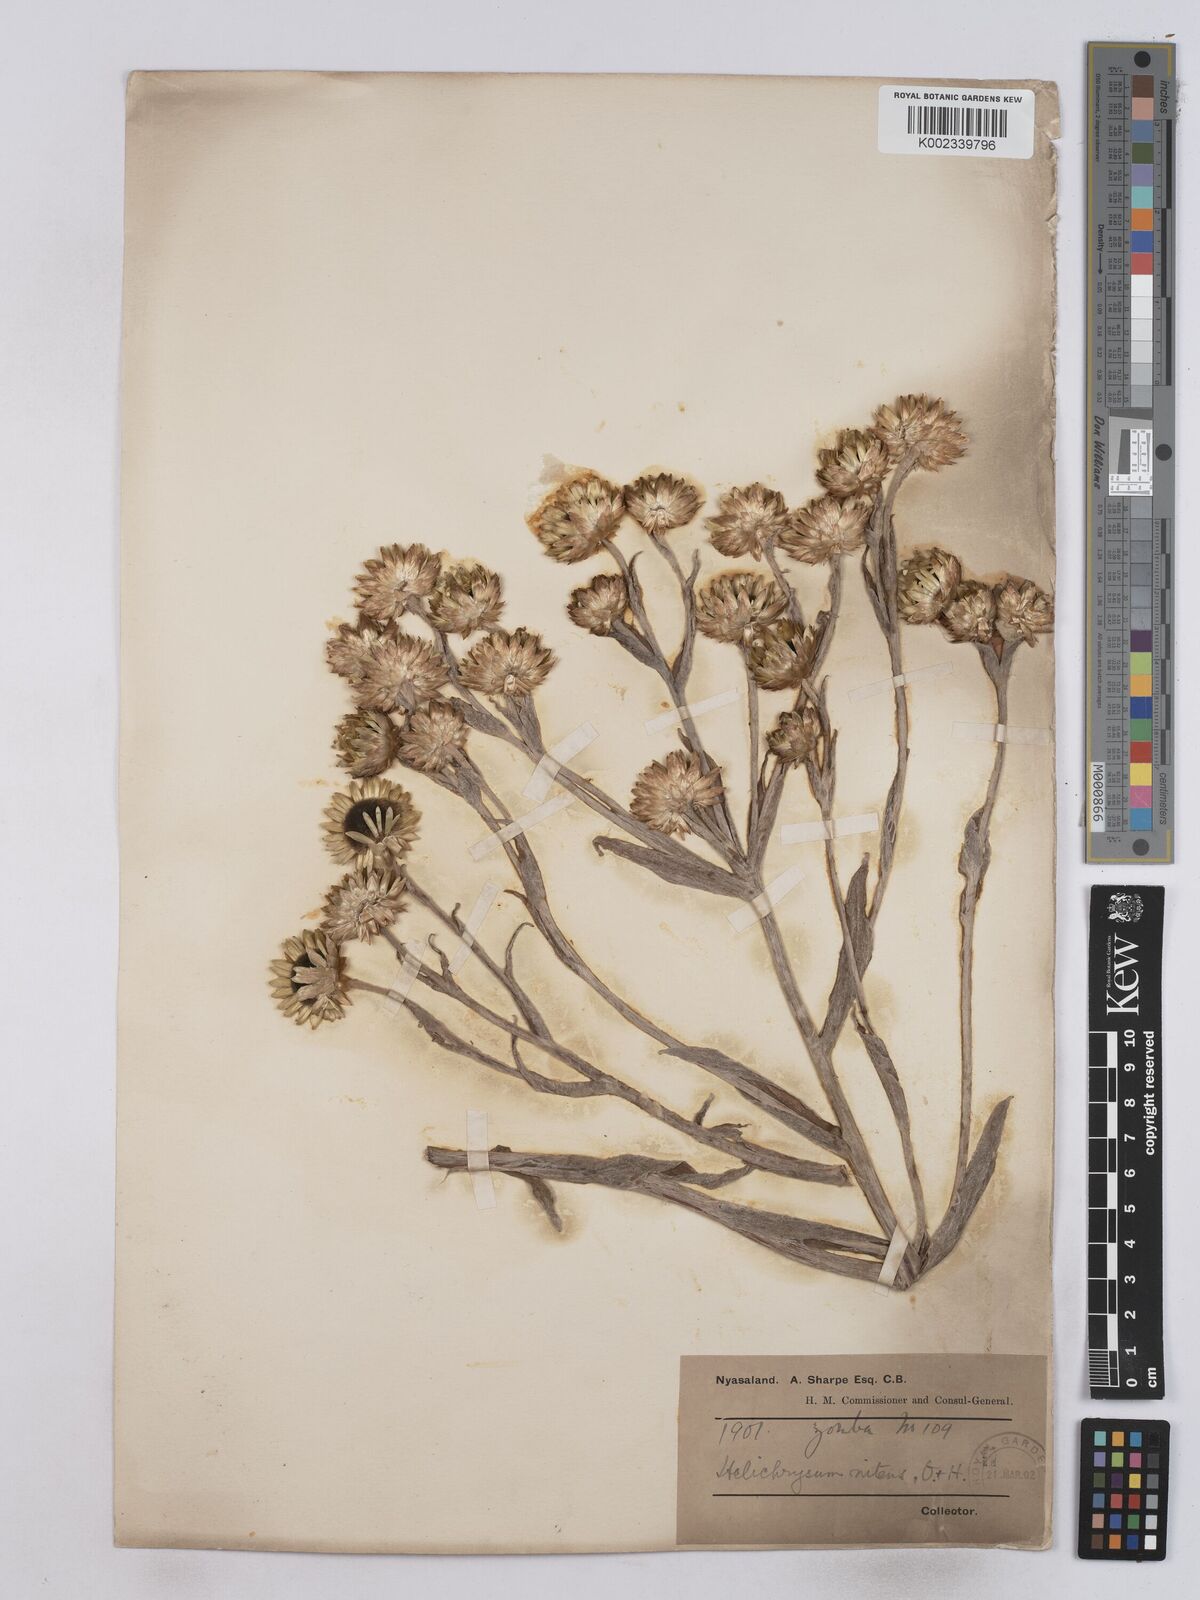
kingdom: Plantae
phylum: Tracheophyta
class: Magnoliopsida
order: Asterales
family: Asteraceae
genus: Helichrysum
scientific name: Helichrysum nitens
